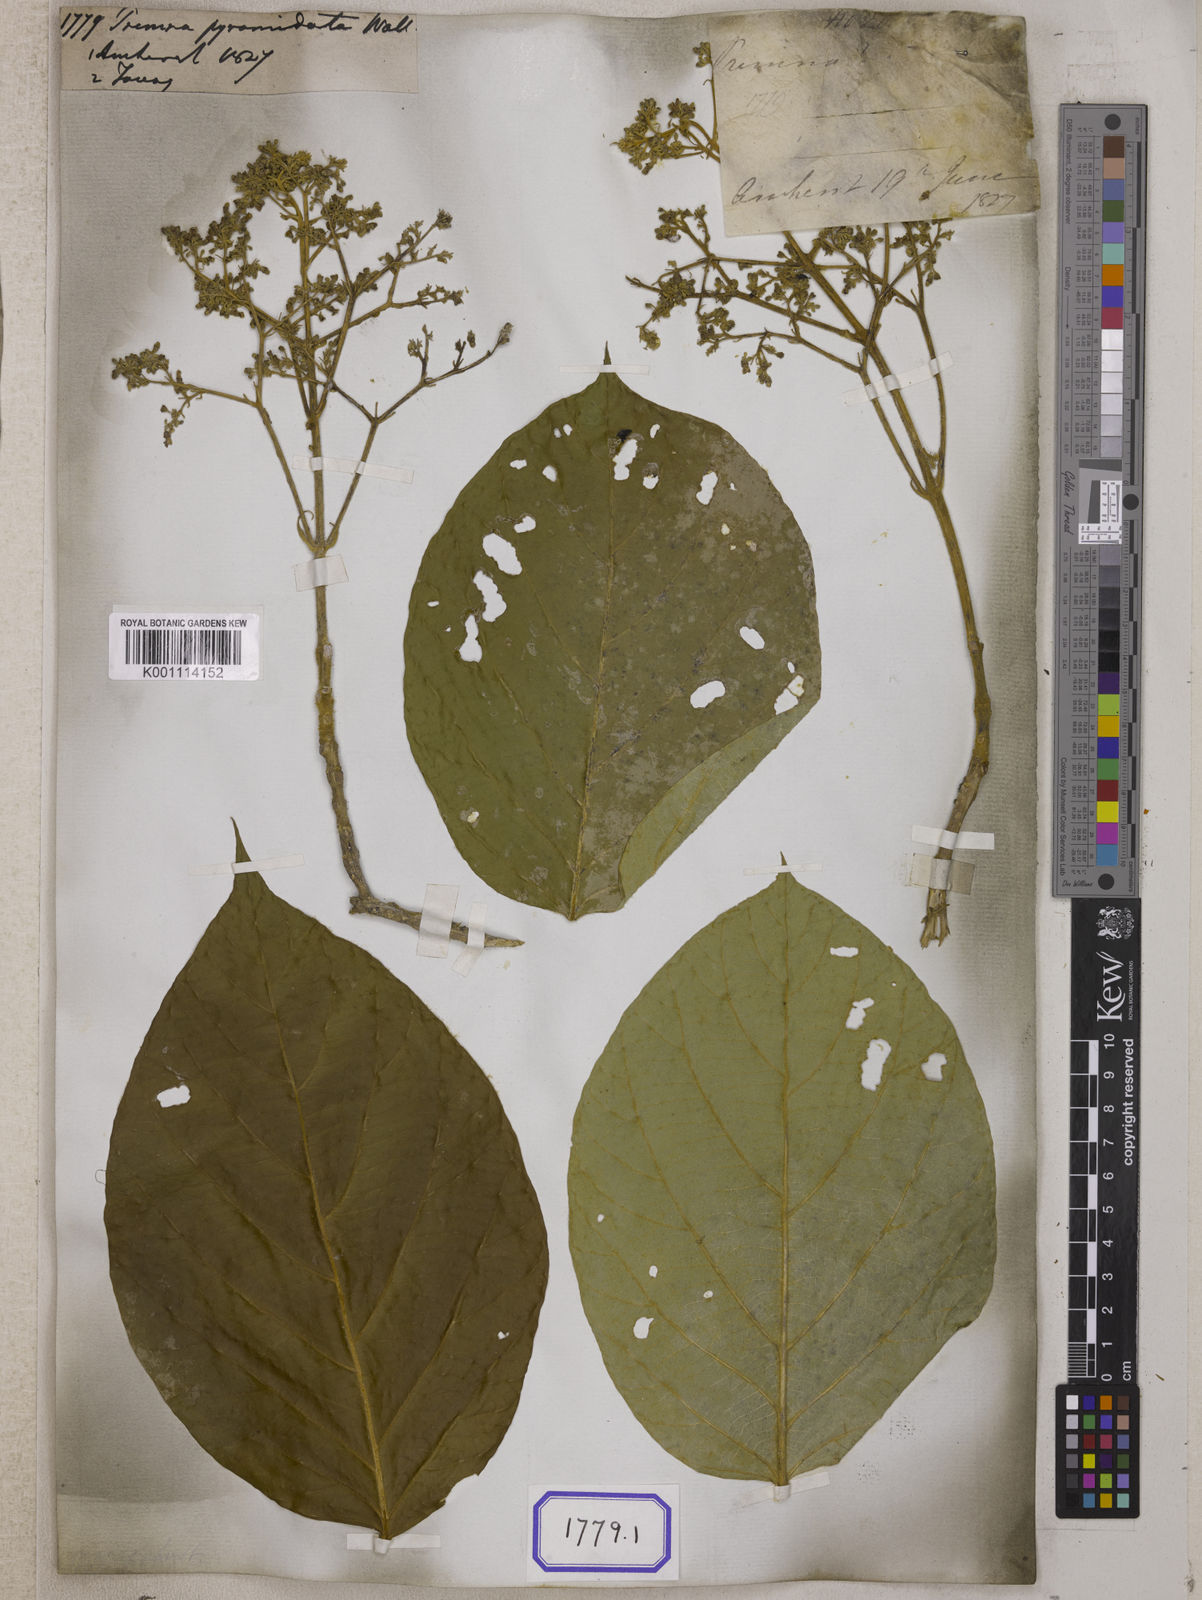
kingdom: Plantae
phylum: Tracheophyta
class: Magnoliopsida
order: Lamiales
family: Lamiaceae
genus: Premna
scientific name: Premna
